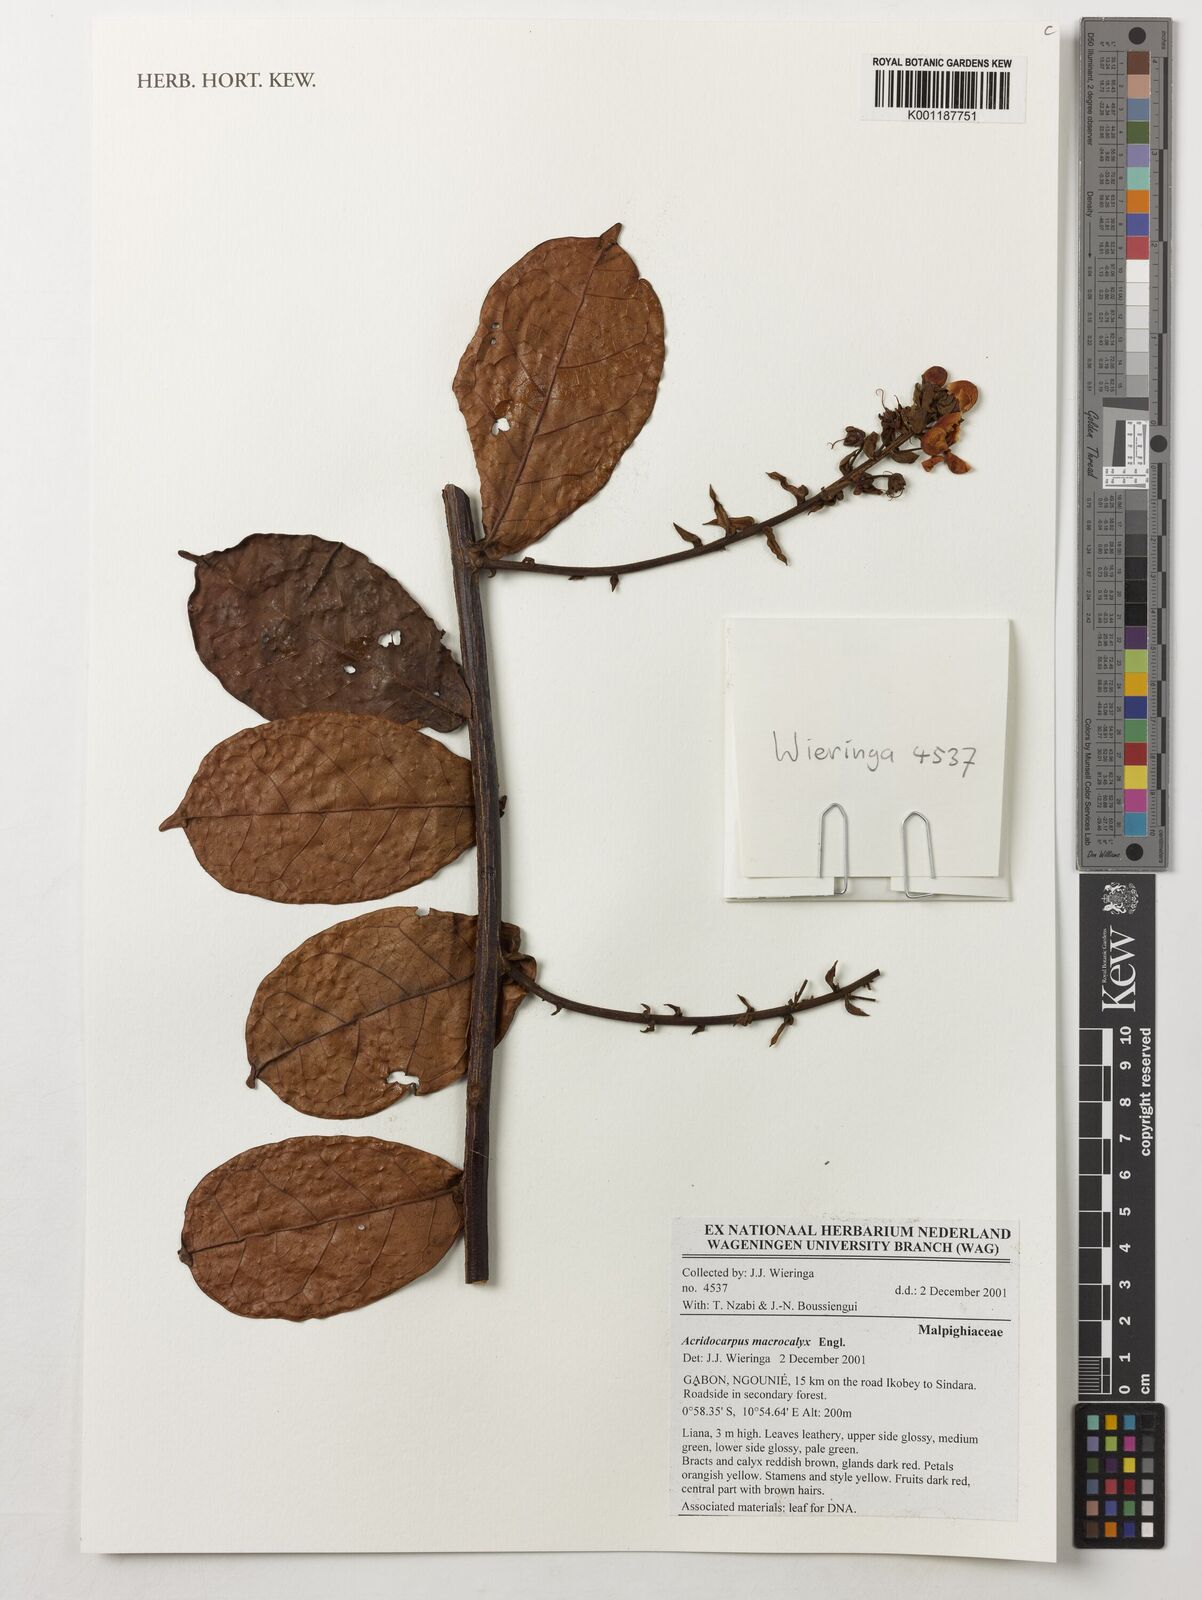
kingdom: Plantae
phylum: Tracheophyta
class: Magnoliopsida
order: Malpighiales
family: Malpighiaceae
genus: Acridocarpus
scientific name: Acridocarpus macrocalyx
